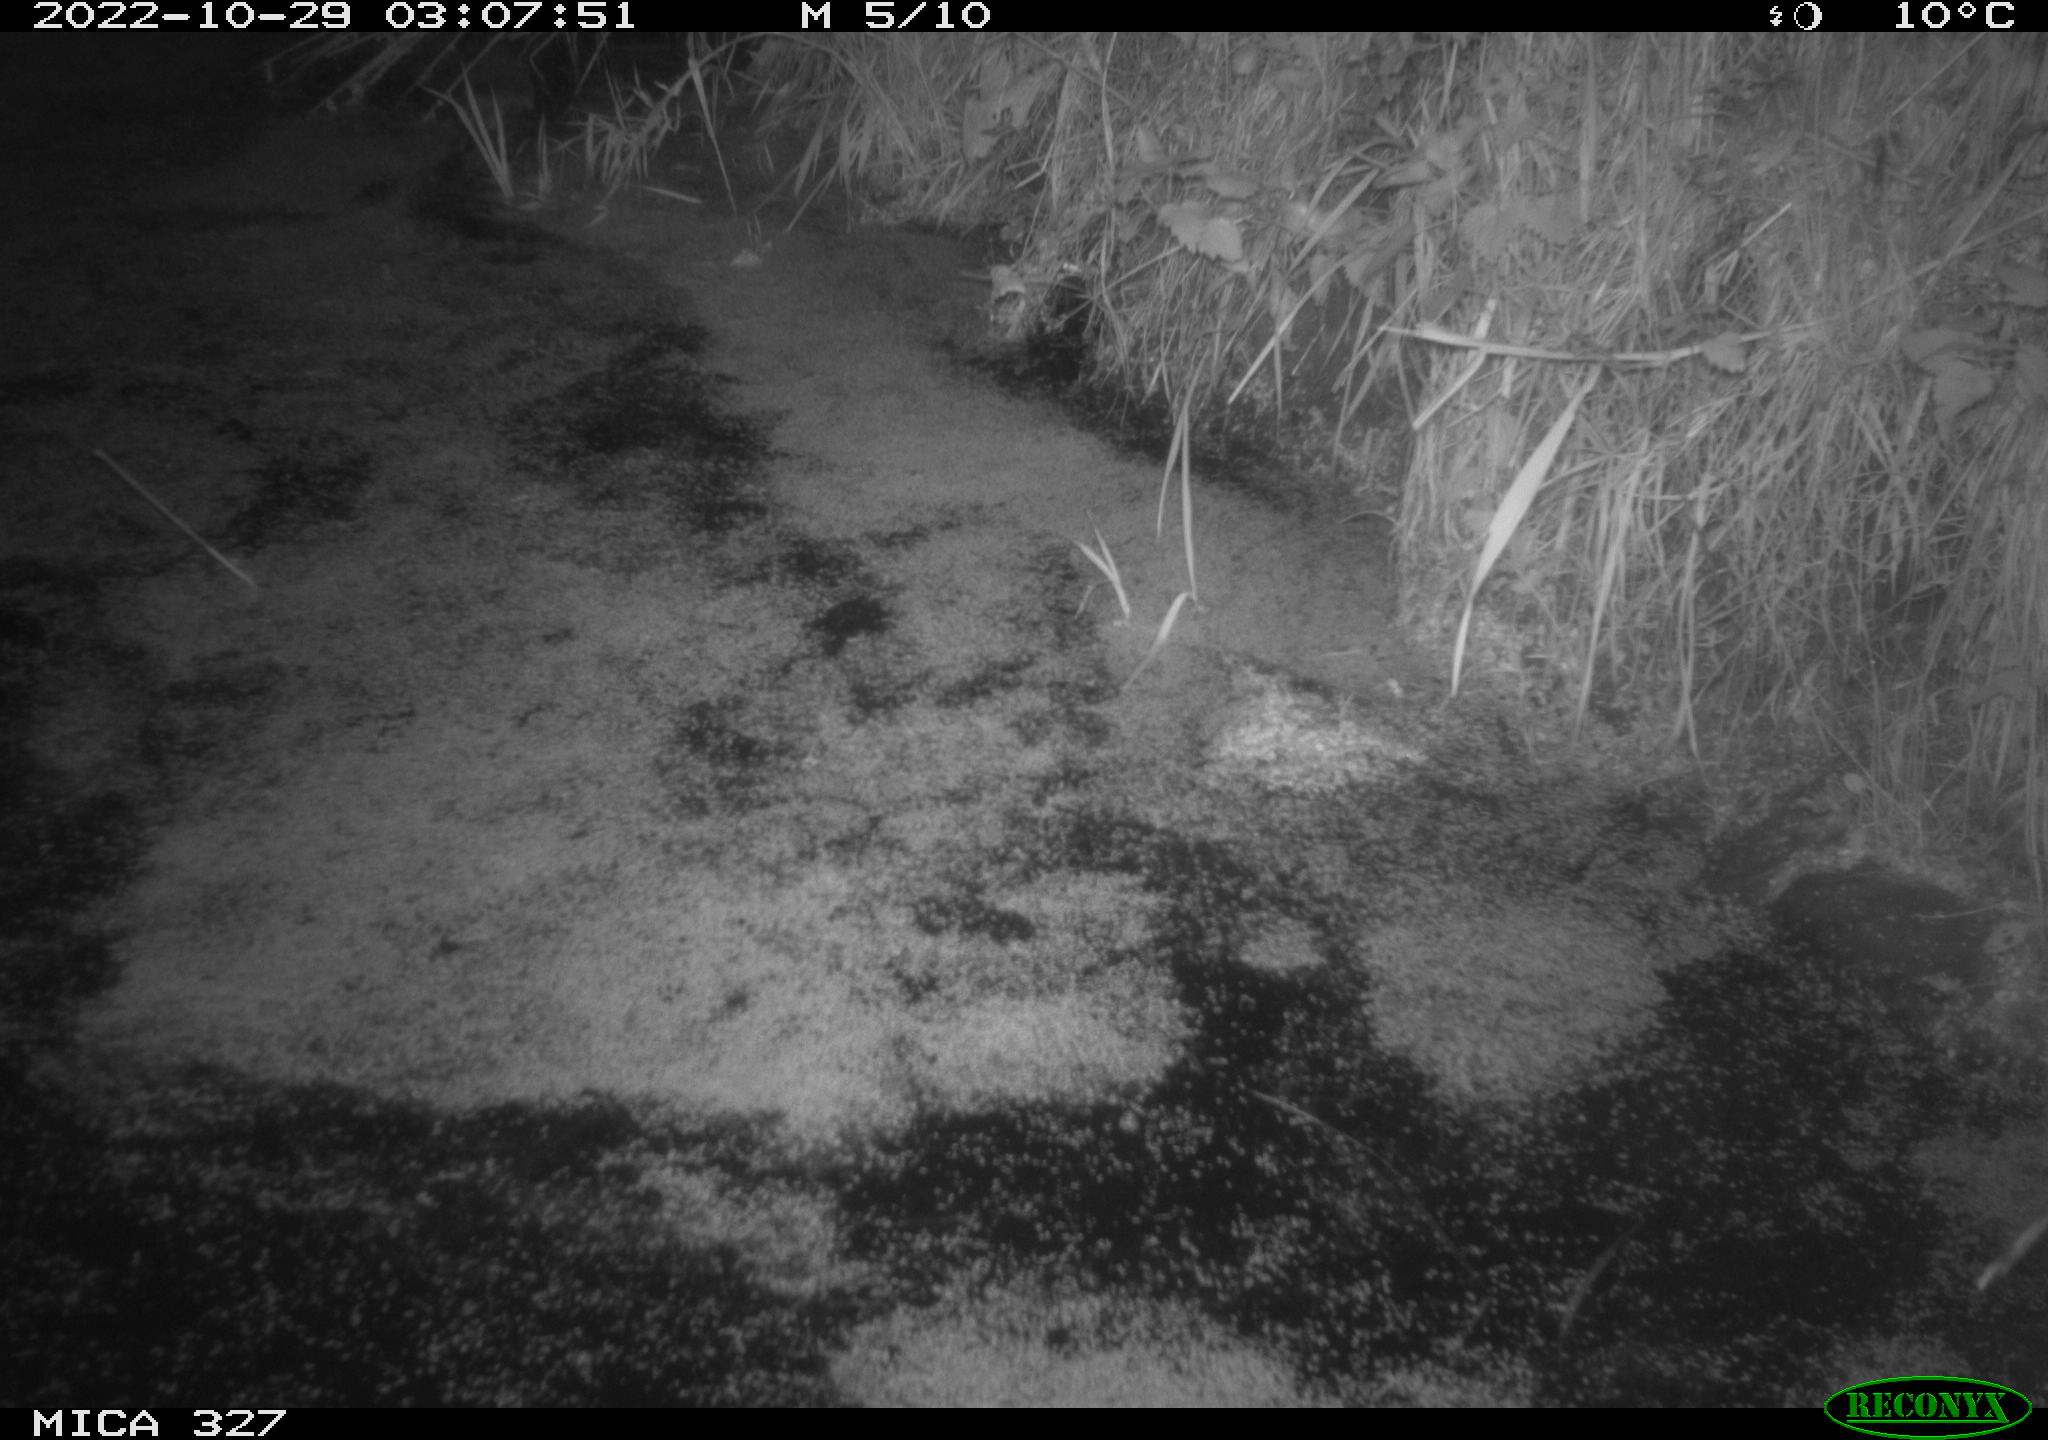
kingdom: Animalia
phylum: Chordata
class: Mammalia
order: Rodentia
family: Cricetidae
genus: Ondatra
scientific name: Ondatra zibethicus
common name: Muskrat
